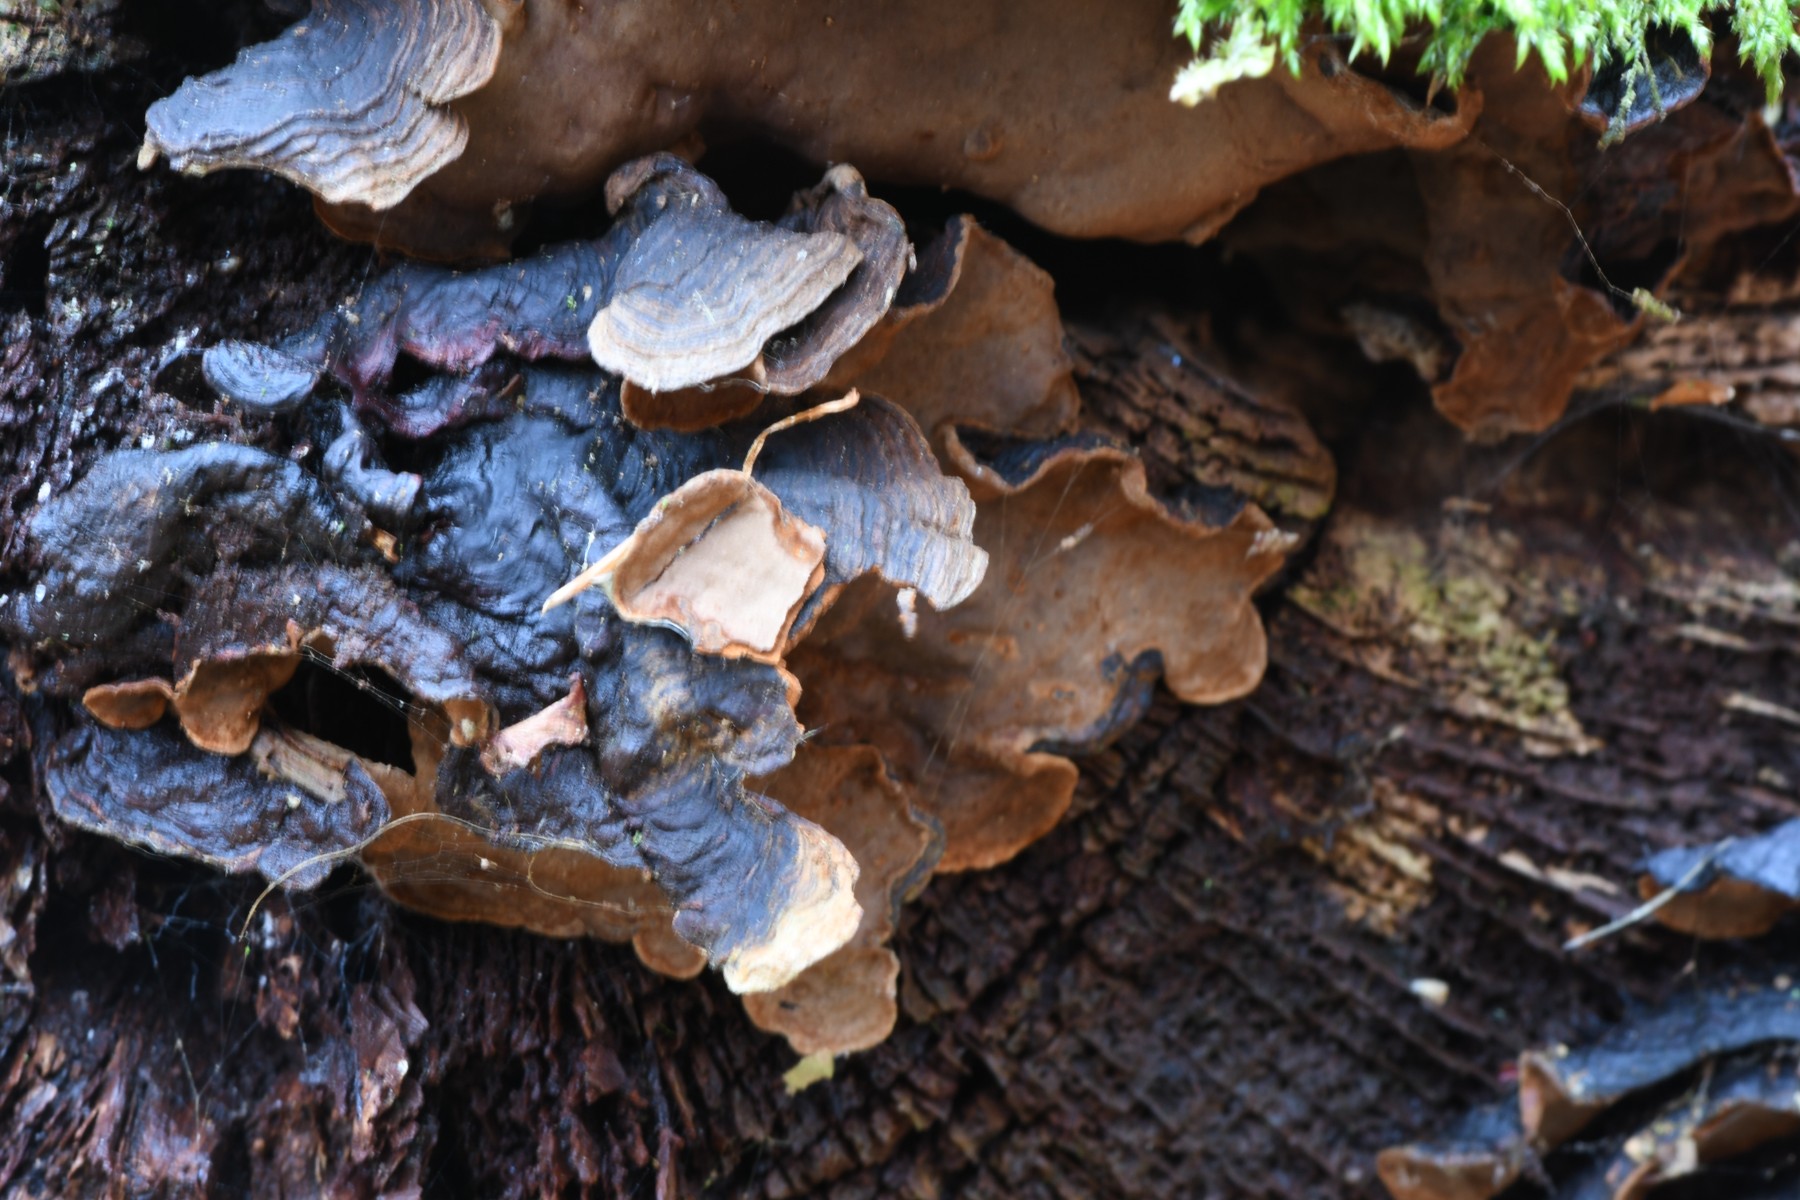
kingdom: Fungi
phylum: Basidiomycota
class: Agaricomycetes
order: Hymenochaetales
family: Hymenochaetaceae
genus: Hymenochaete
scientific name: Hymenochaete rubiginosa
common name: stiv ruslædersvamp
